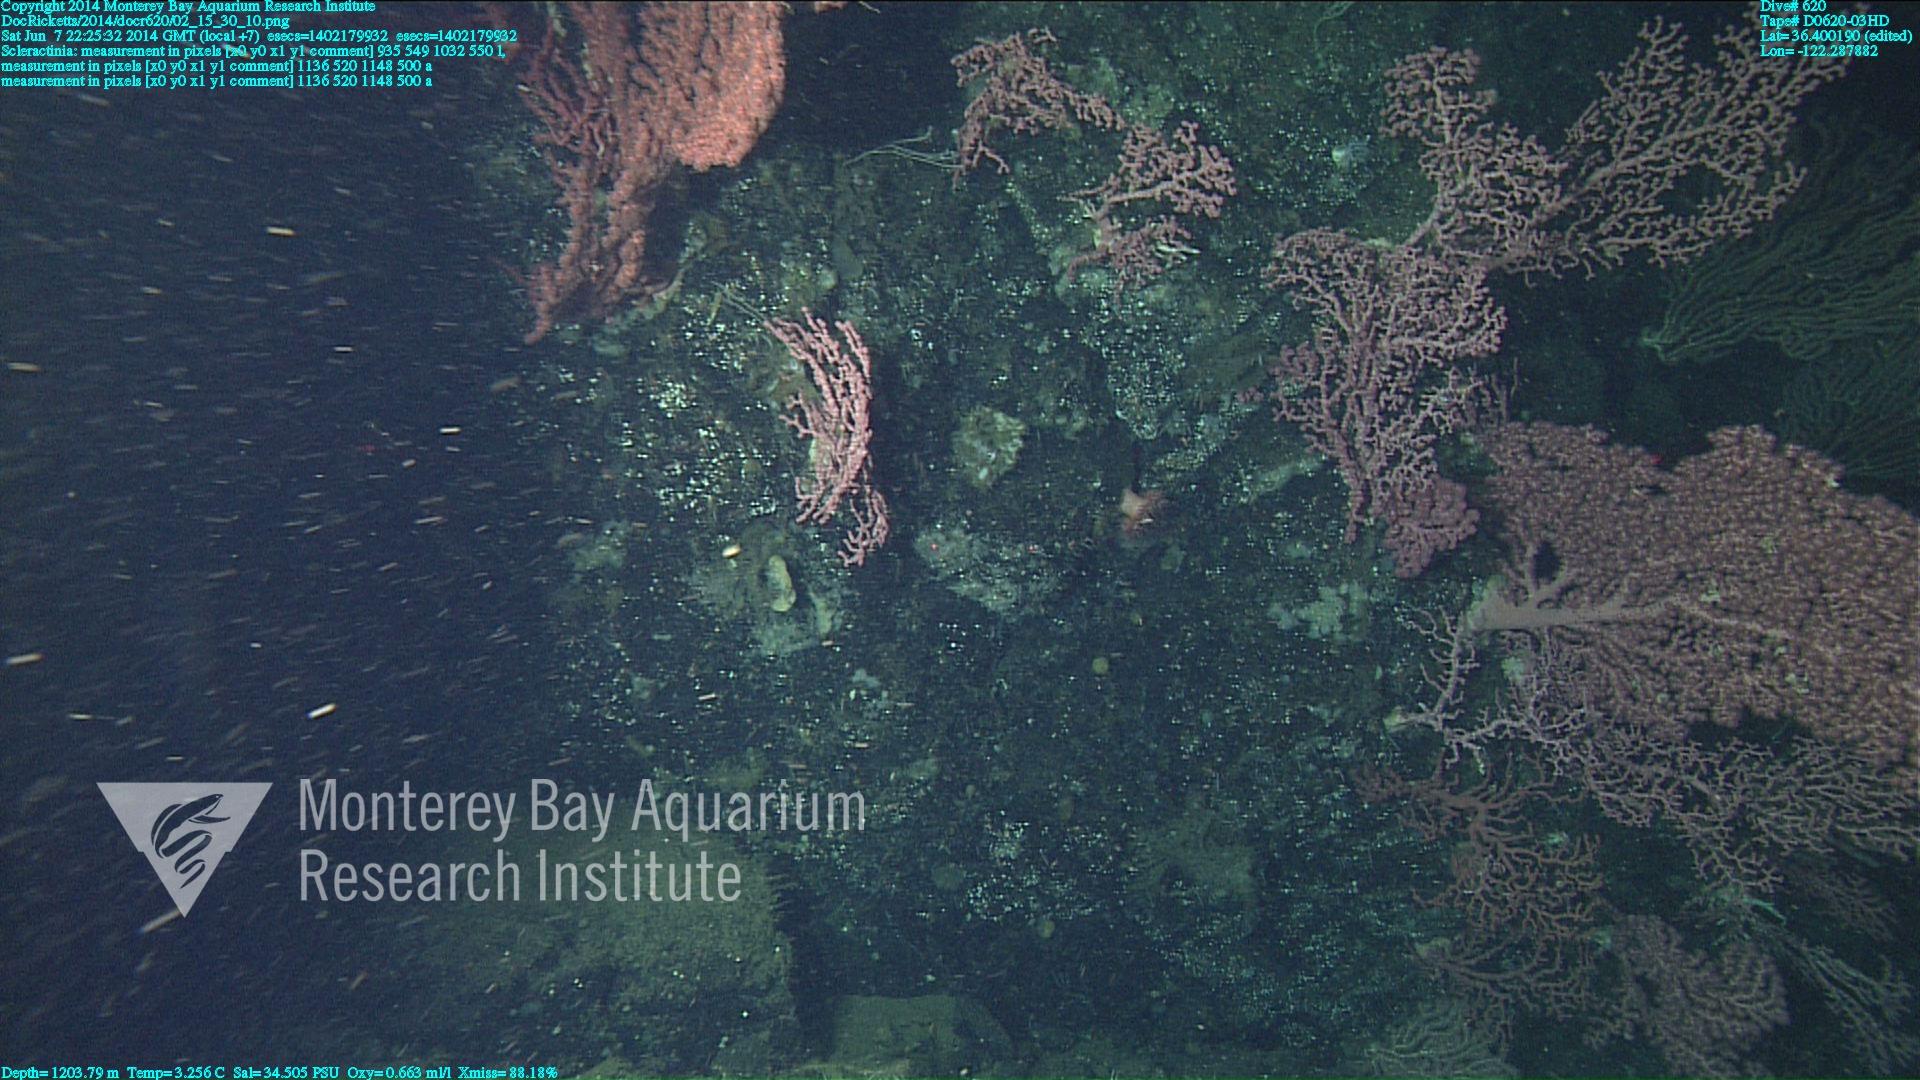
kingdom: Animalia
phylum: Cnidaria
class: Anthozoa
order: Scleractinia
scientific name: Scleractinia
